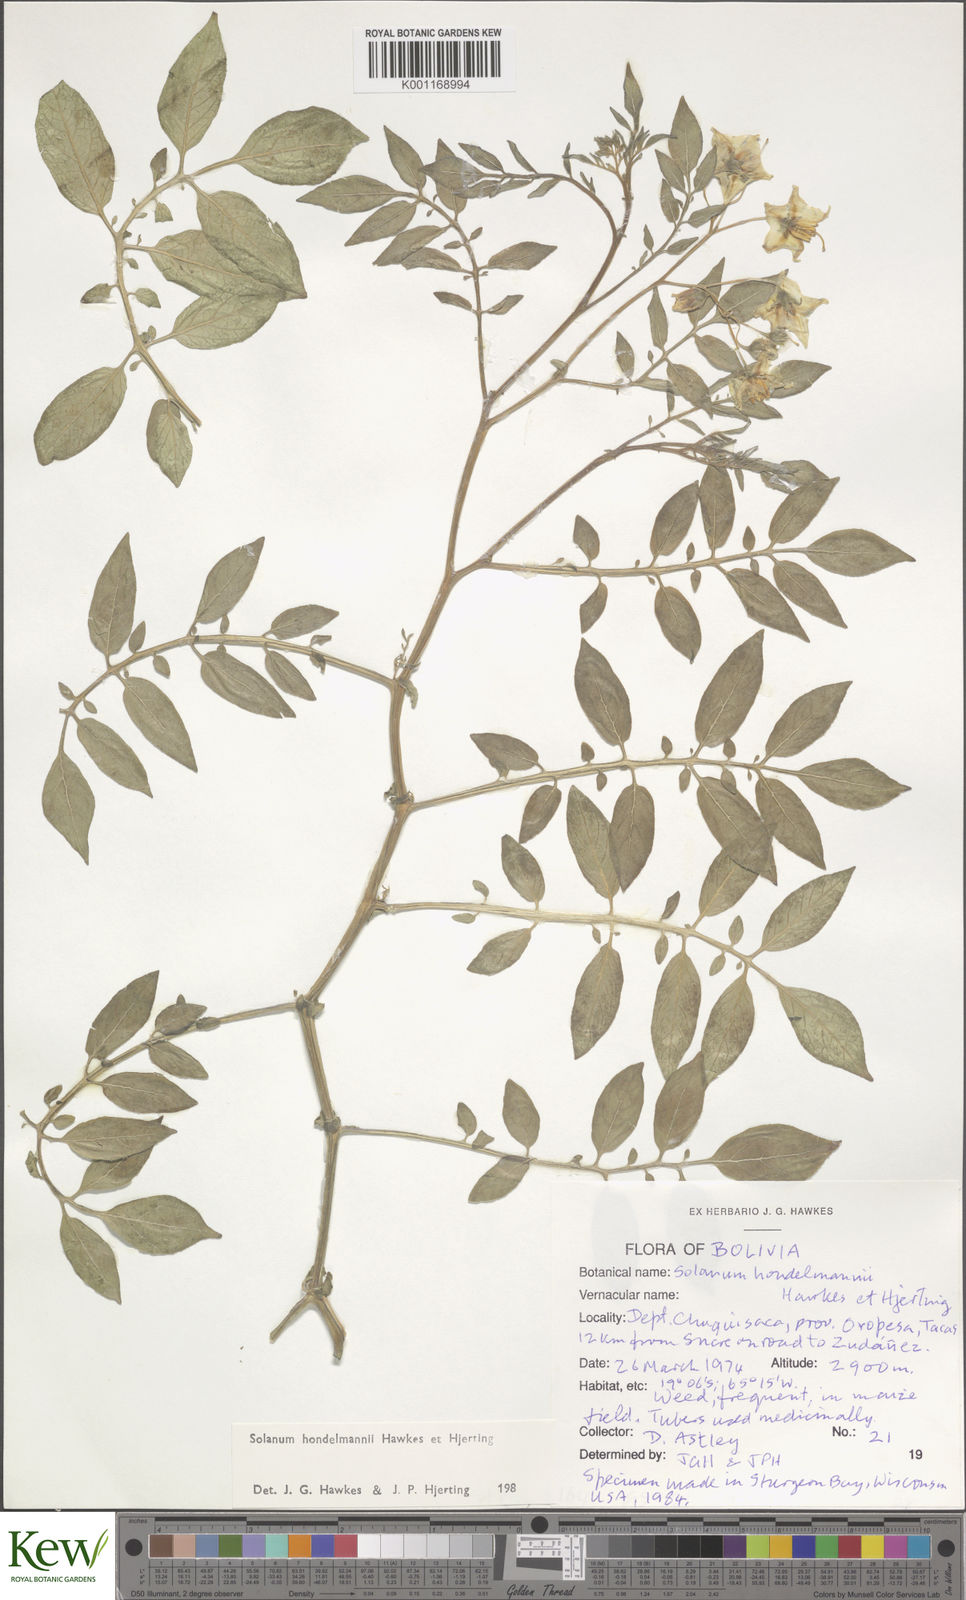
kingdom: Plantae
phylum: Tracheophyta
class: Magnoliopsida
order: Solanales
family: Solanaceae
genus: Solanum
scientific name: Solanum brevicaule
